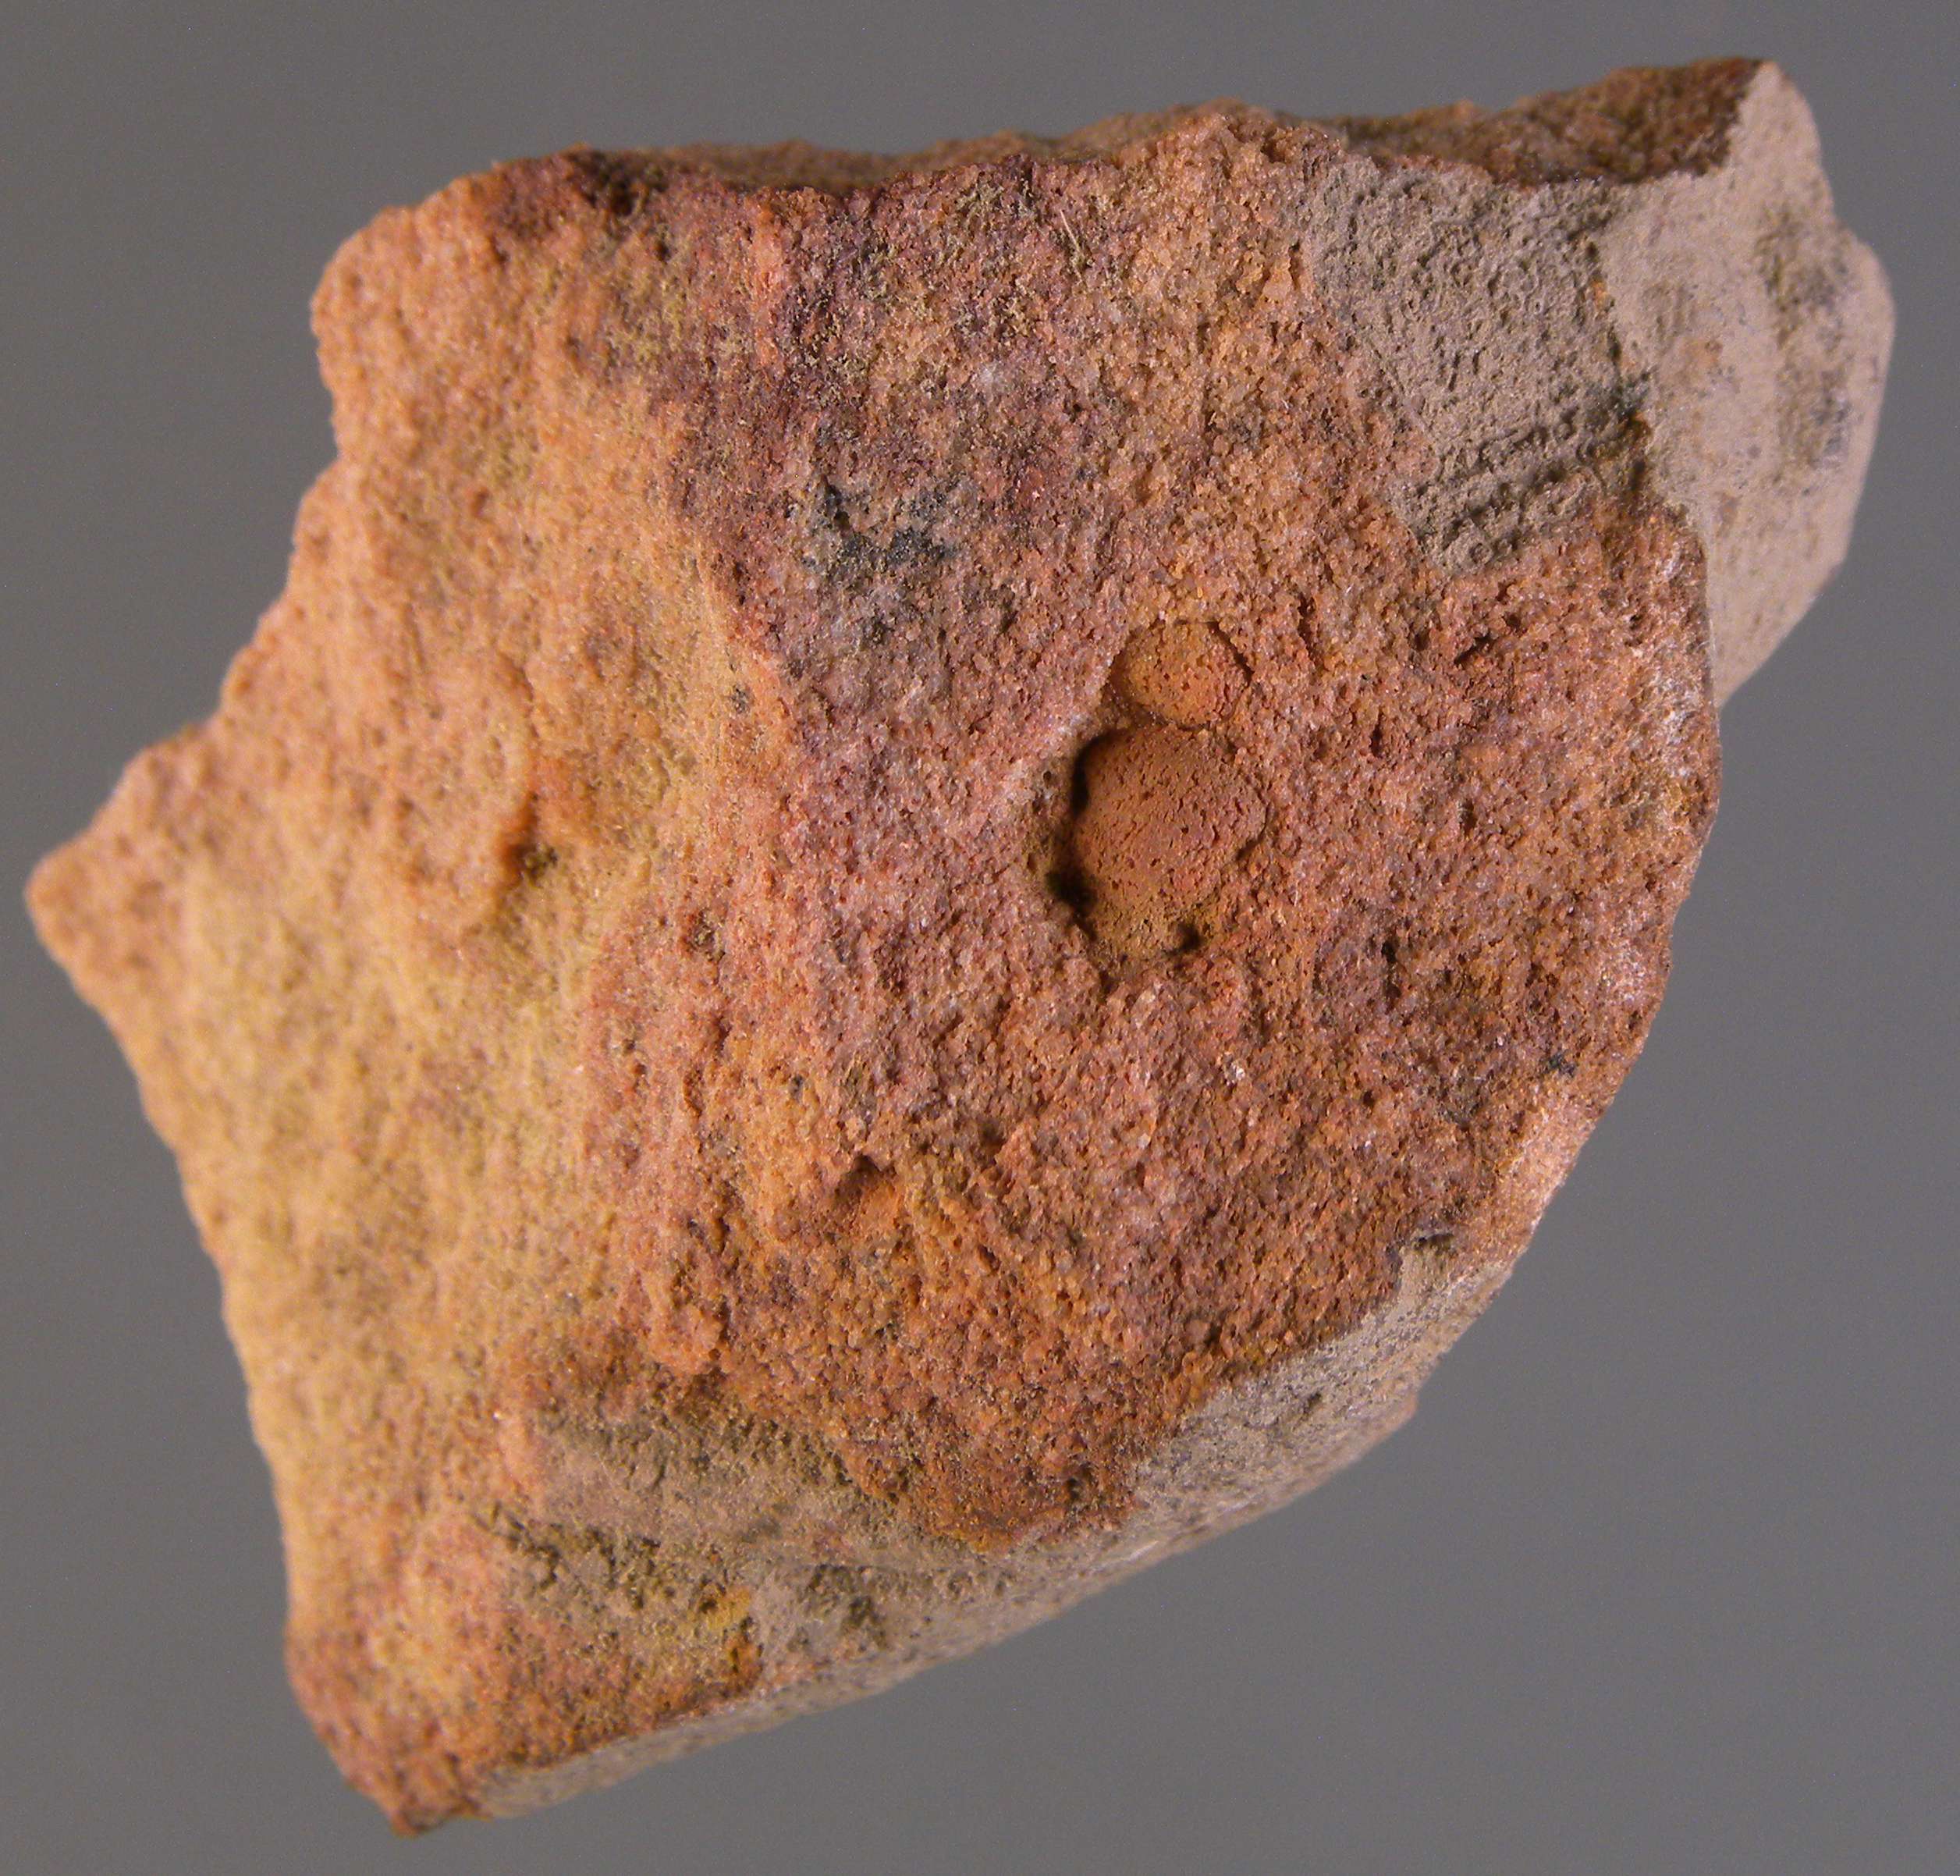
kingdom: Animalia
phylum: Arthropoda
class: Trilobita
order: Phacopida
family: Acastidae
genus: Acastava
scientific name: Acastava
